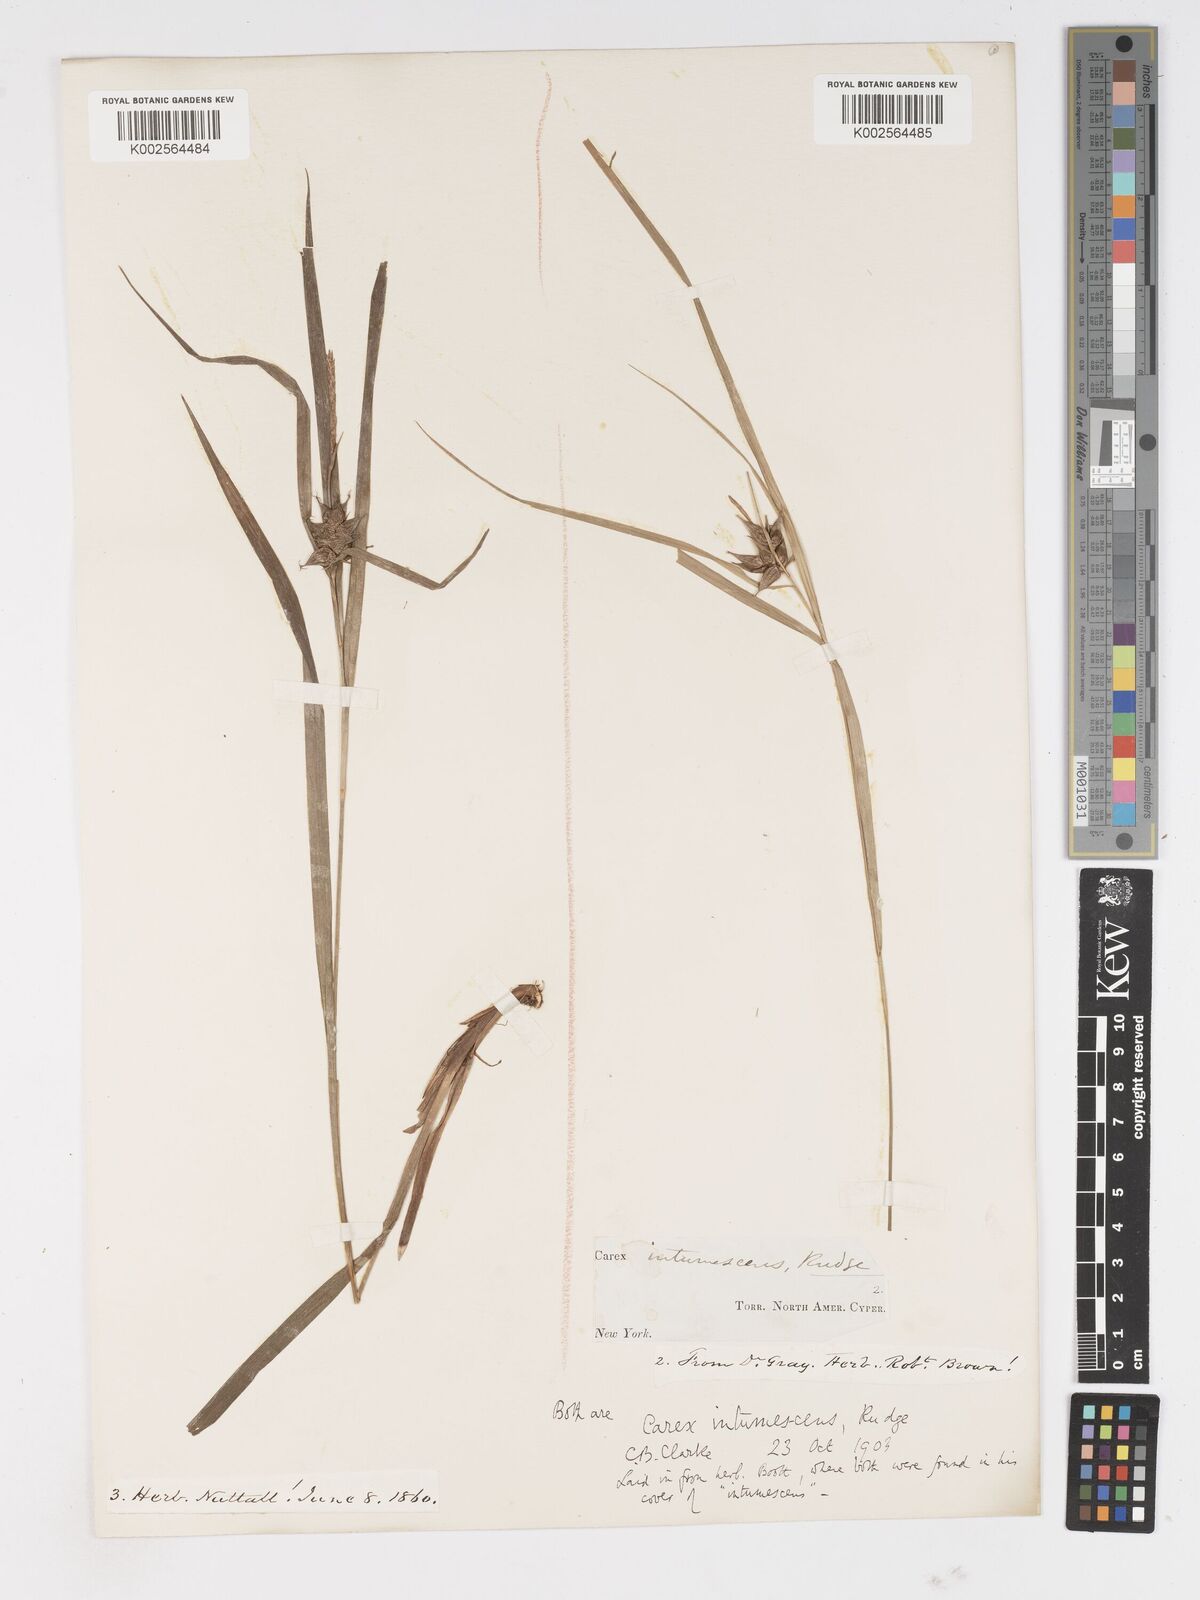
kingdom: Plantae
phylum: Tracheophyta
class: Liliopsida
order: Poales
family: Cyperaceae
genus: Carex
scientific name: Carex intumescens
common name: Greater bladder sedge
